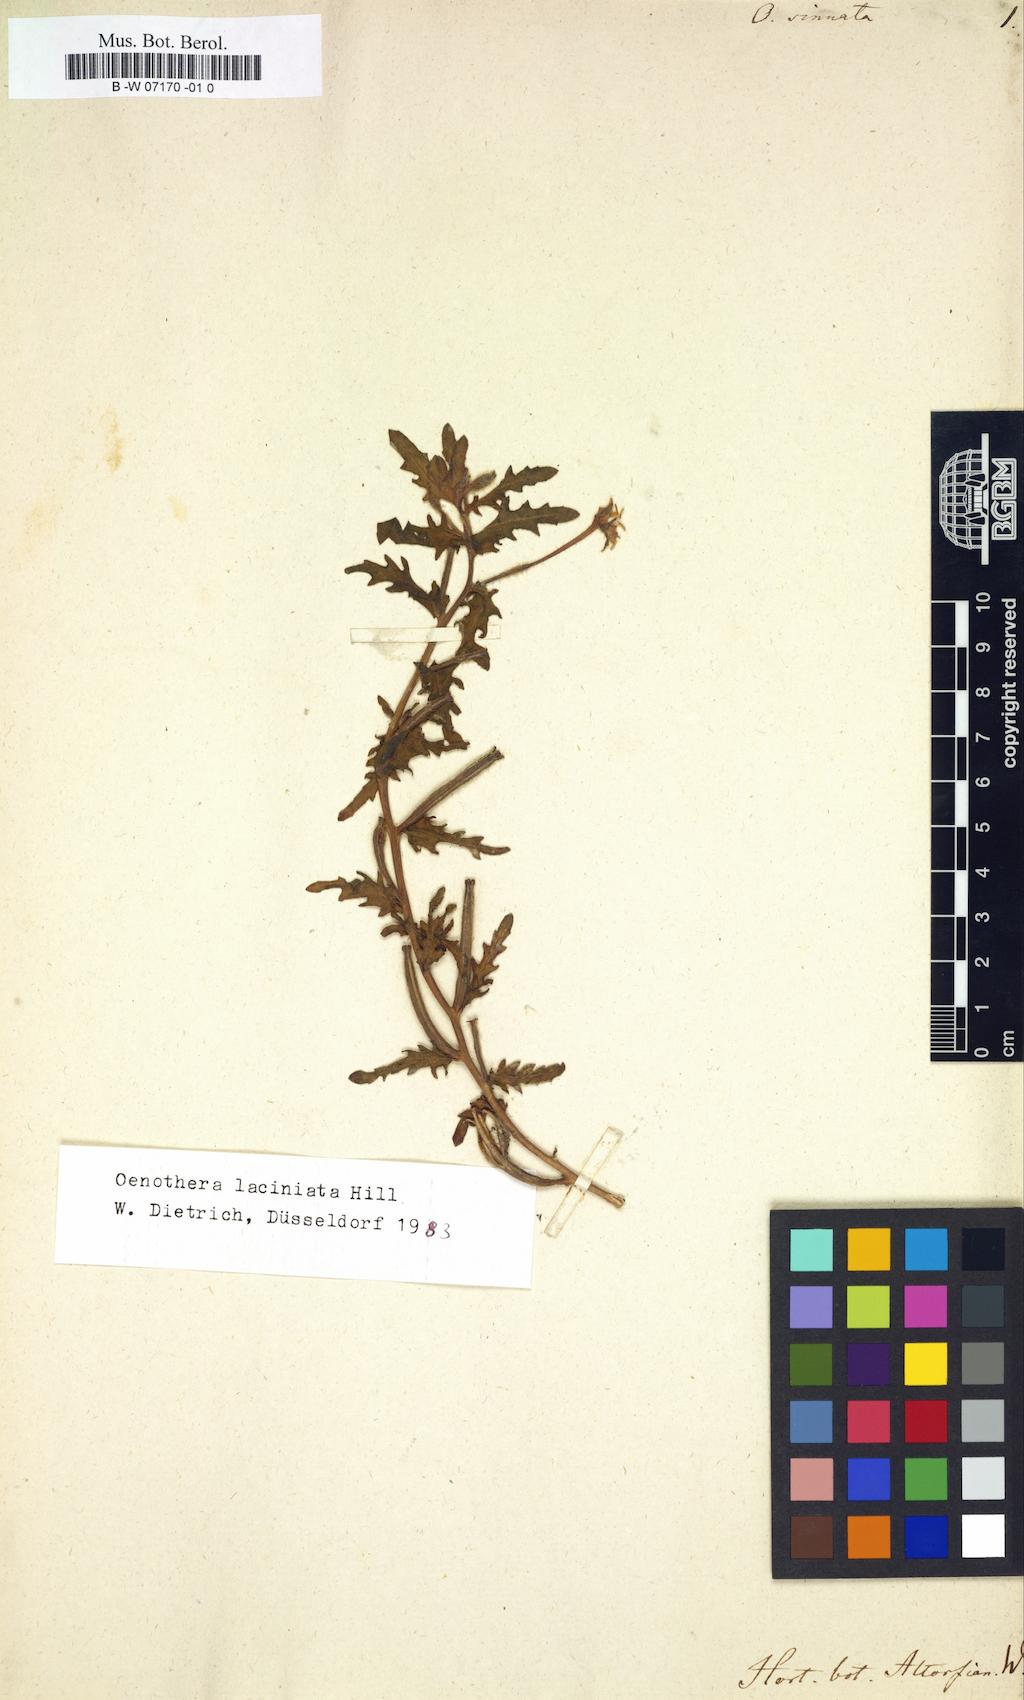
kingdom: Plantae
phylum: Tracheophyta
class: Magnoliopsida
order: Myrtales
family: Onagraceae
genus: Oenothera
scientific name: Oenothera laciniata
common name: Cut-leaved evening-primrose
